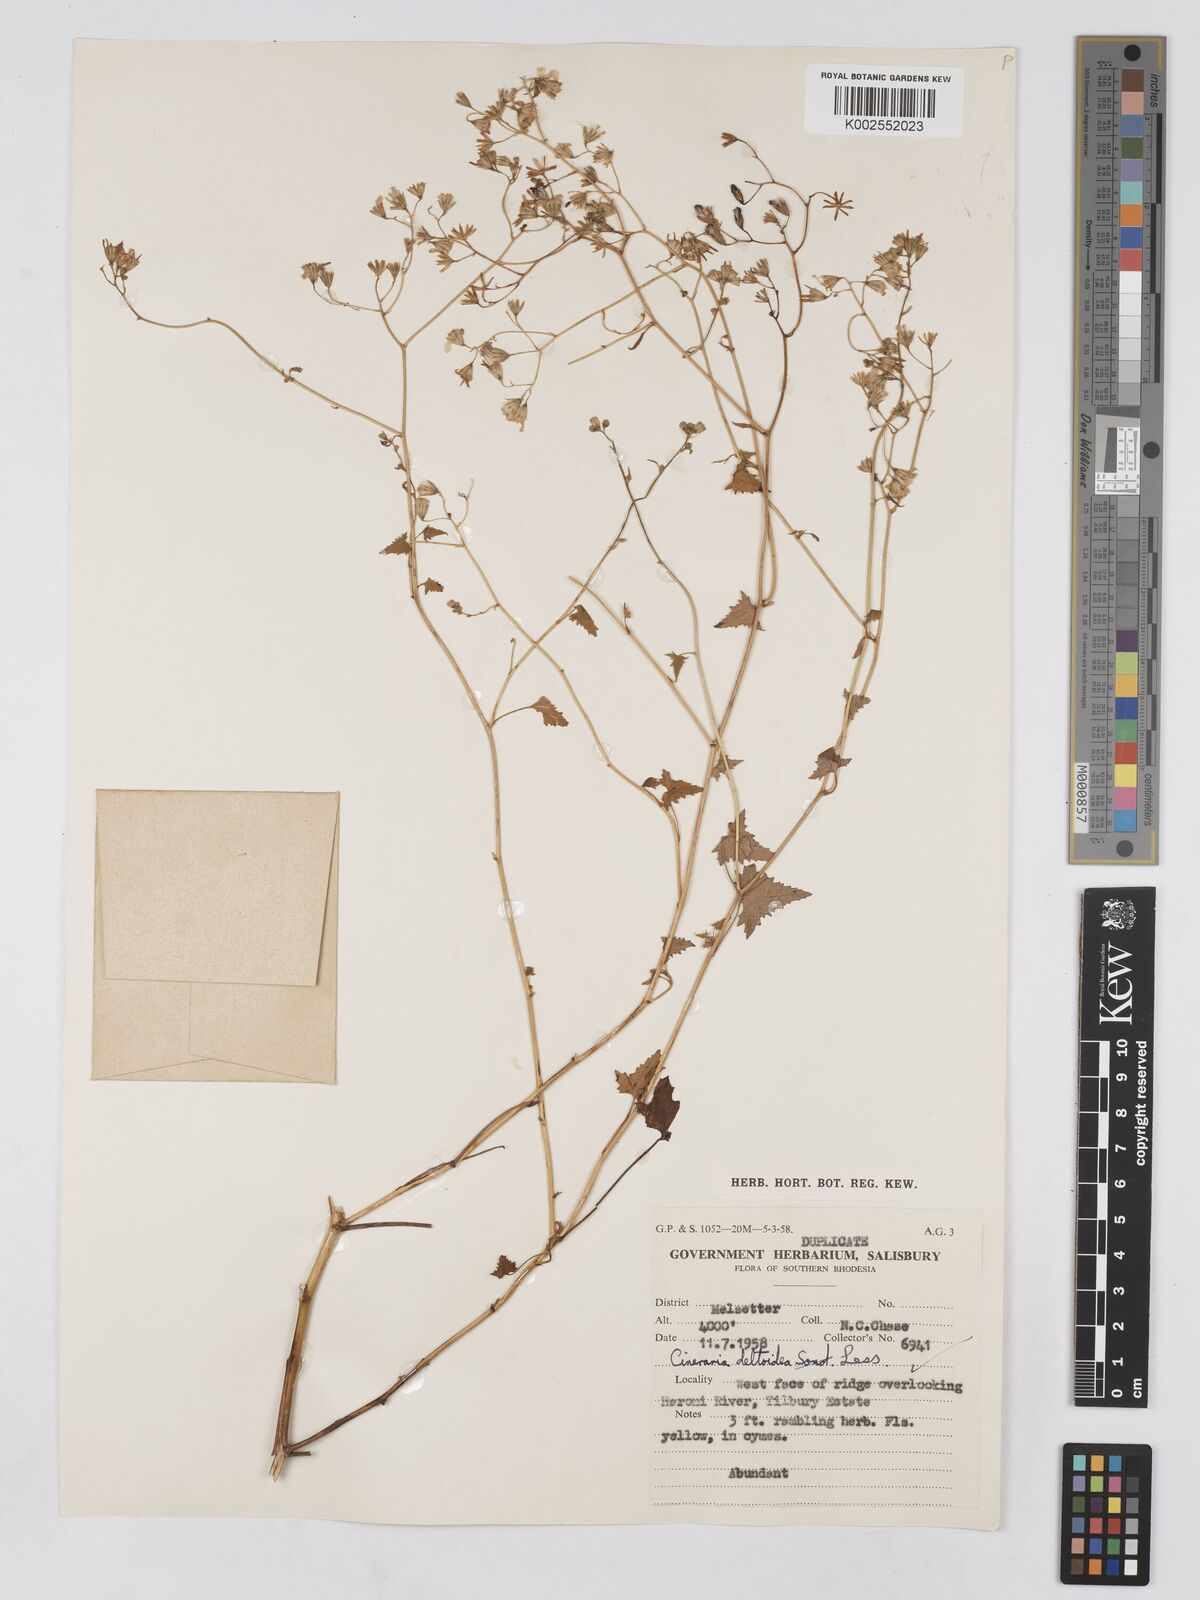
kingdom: Plantae
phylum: Tracheophyta
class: Magnoliopsida
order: Asterales
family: Asteraceae
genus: Cineraria
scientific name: Cineraria deltoidea
